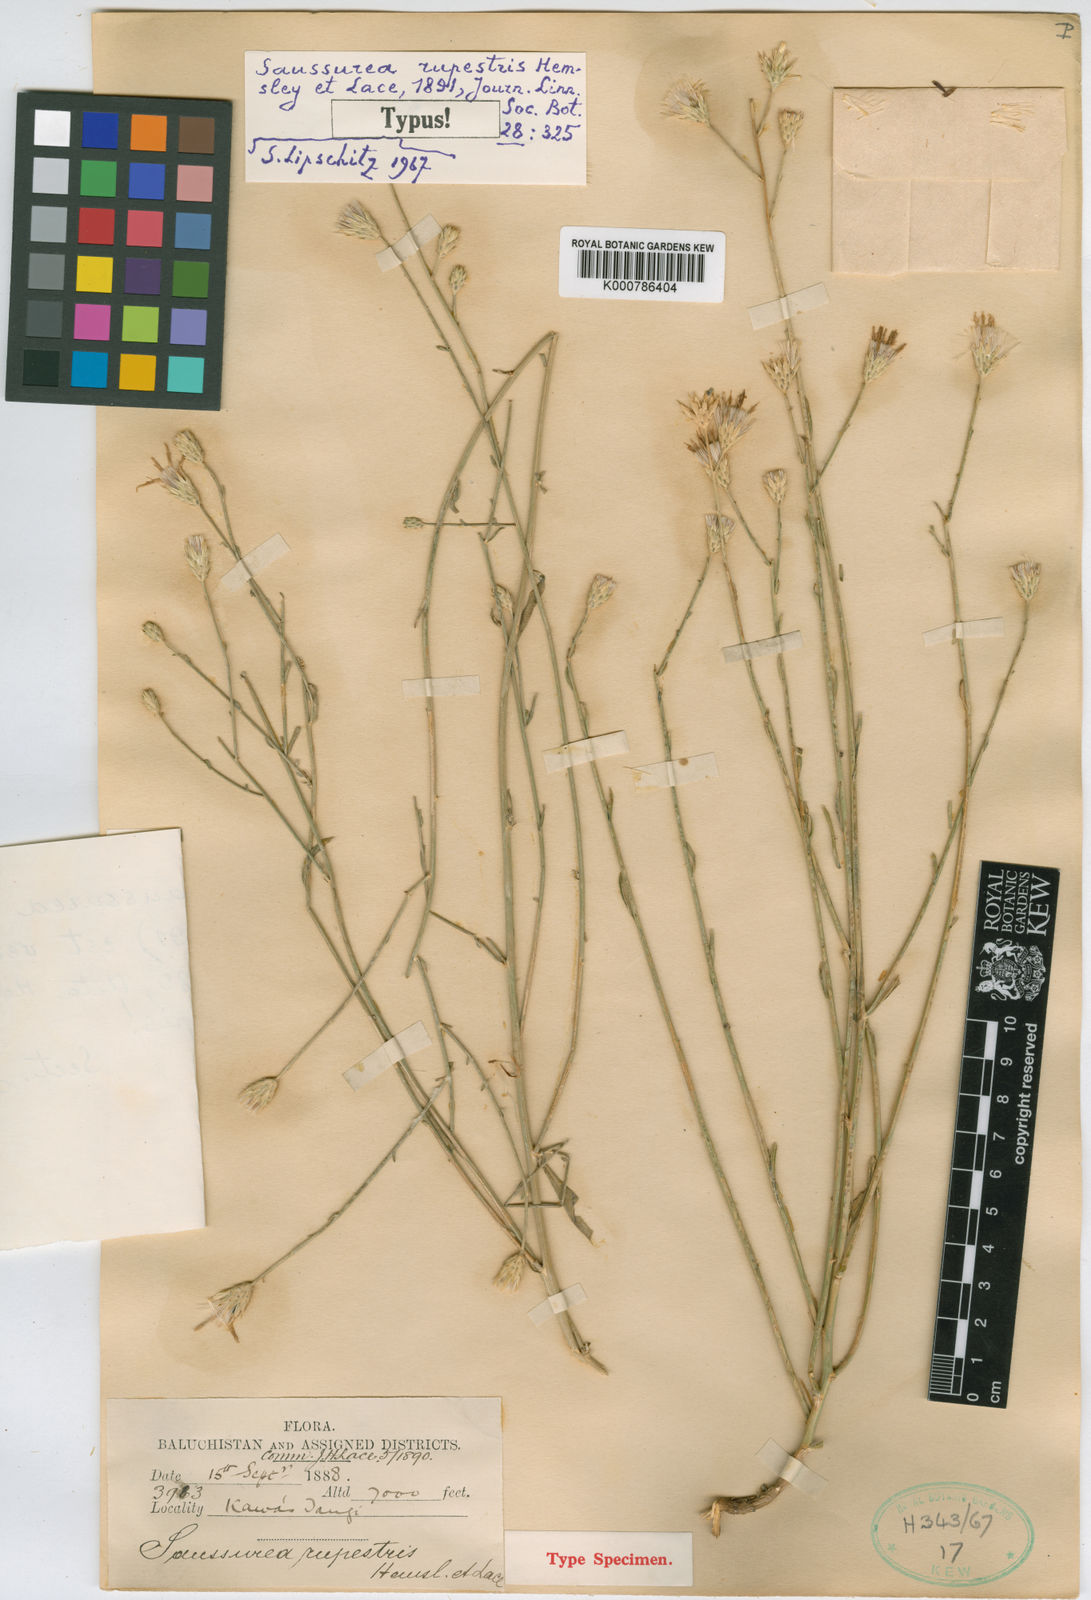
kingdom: Plantae
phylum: Tracheophyta
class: Magnoliopsida
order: Asterales
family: Asteraceae
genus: Saussurea
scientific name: Saussurea chondrilloides
